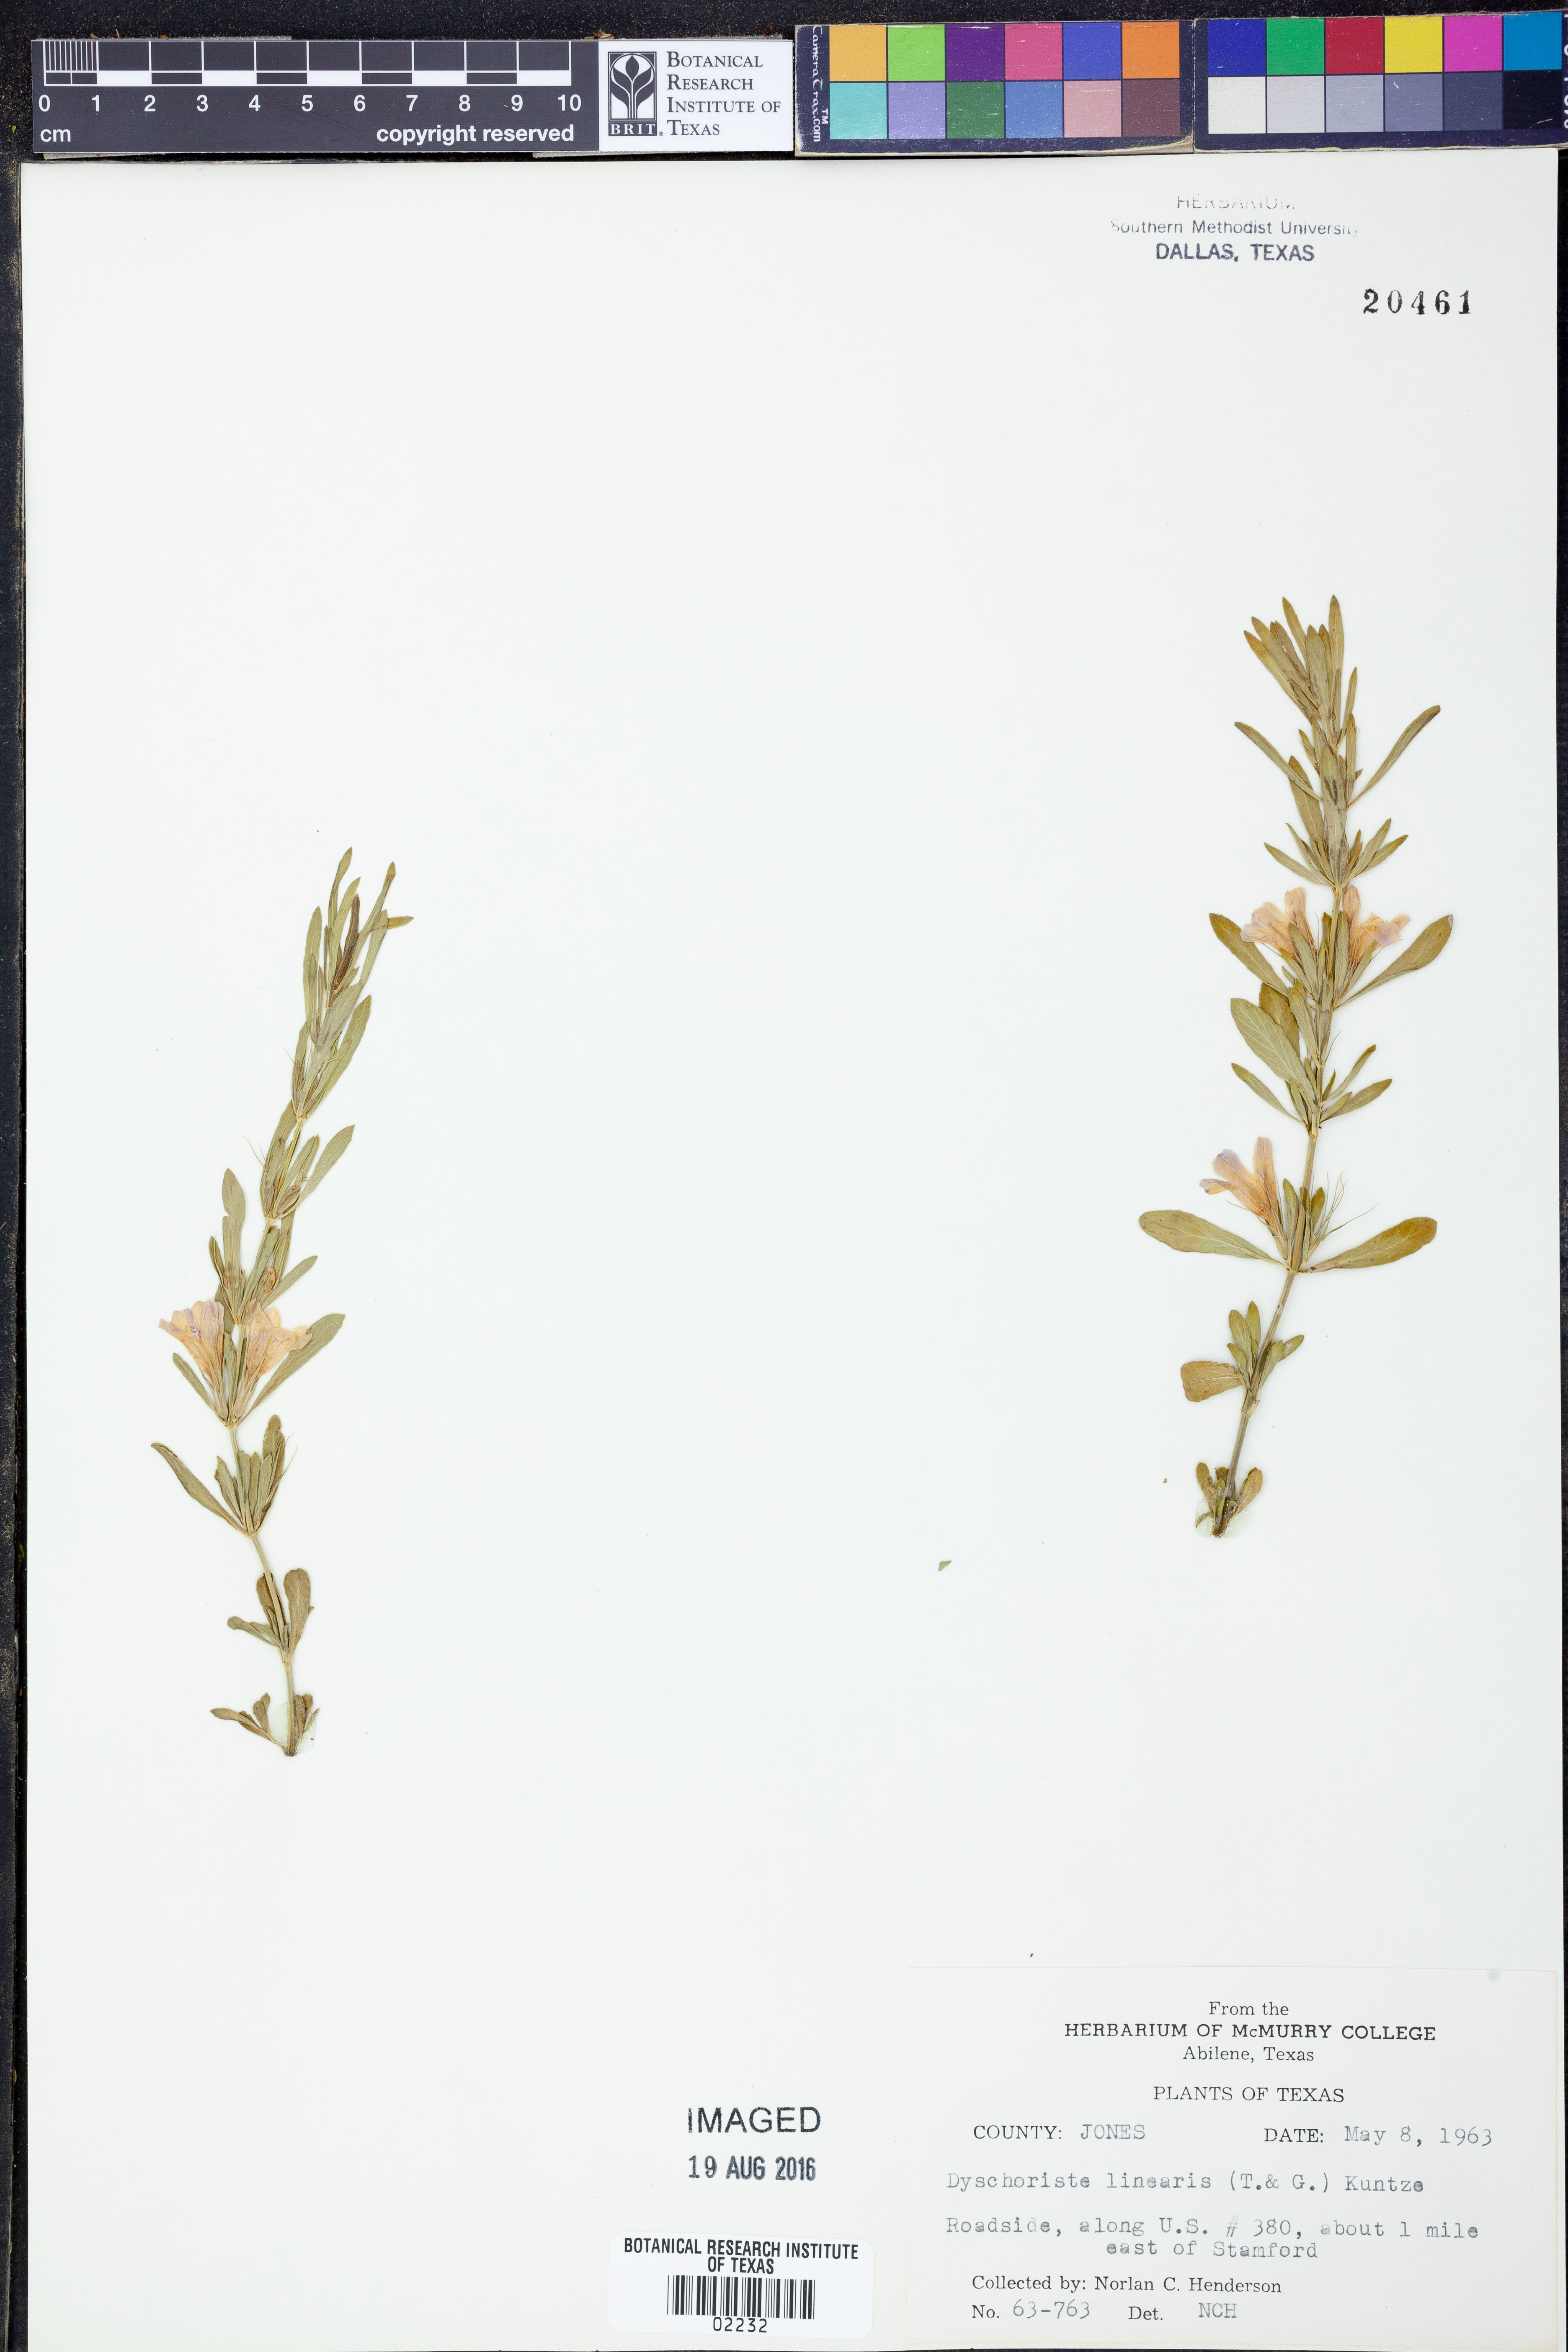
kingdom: Plantae
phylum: Tracheophyta
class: Magnoliopsida
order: Lamiales
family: Acanthaceae
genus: Dyschoriste
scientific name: Dyschoriste linearis
